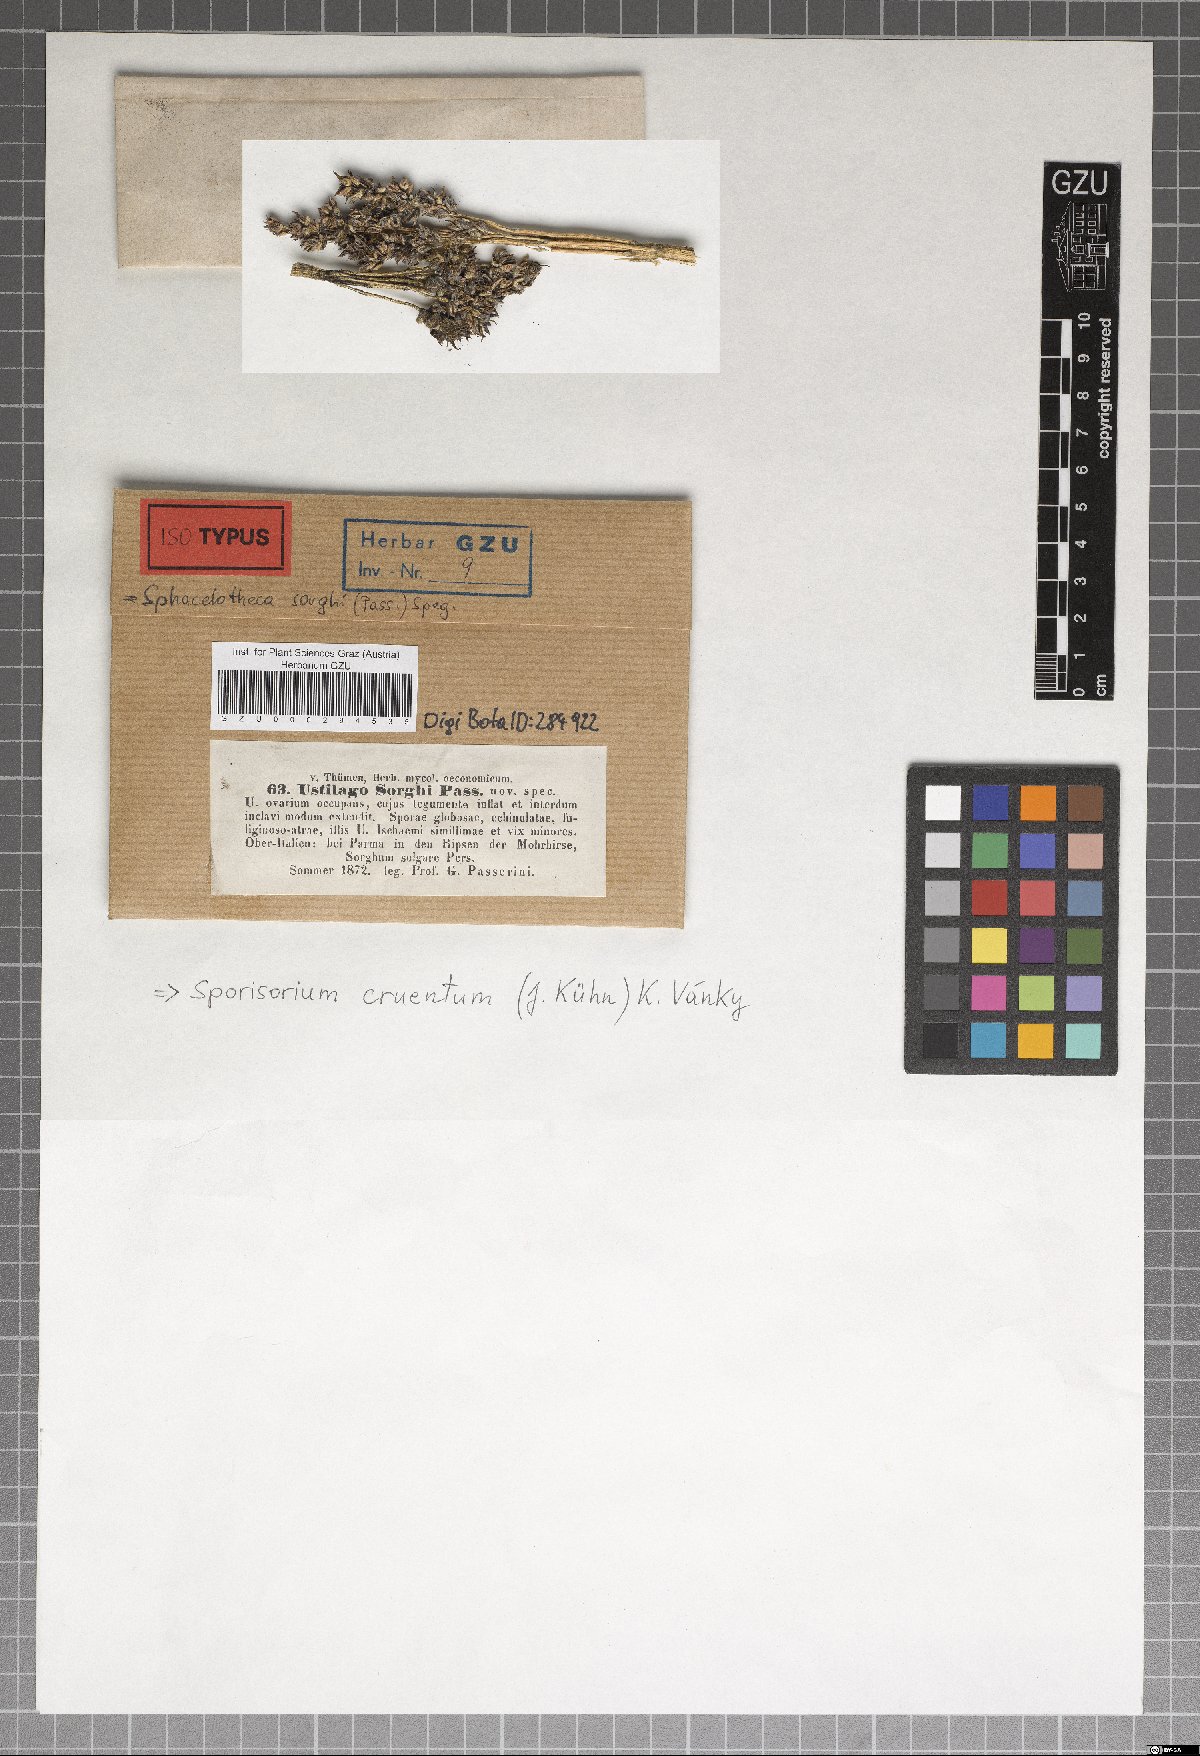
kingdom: Fungi
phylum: Basidiomycota
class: Ustilaginomycetes
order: Ustilaginales
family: Ustilaginaceae
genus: Sporisorium
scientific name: Sporisorium sorghi
